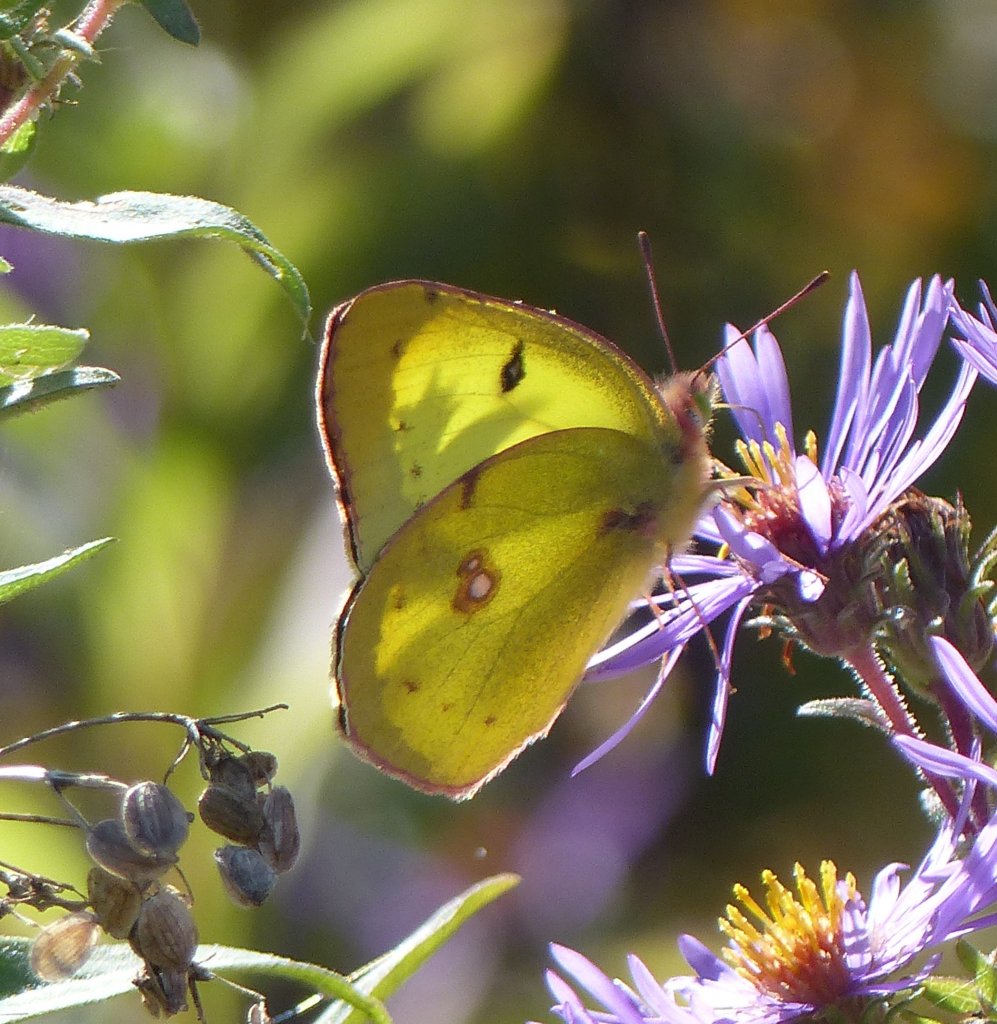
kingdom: Animalia
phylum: Arthropoda
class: Insecta
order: Lepidoptera
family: Pieridae
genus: Colias
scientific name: Colias philodice
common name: Clouded Sulphur
